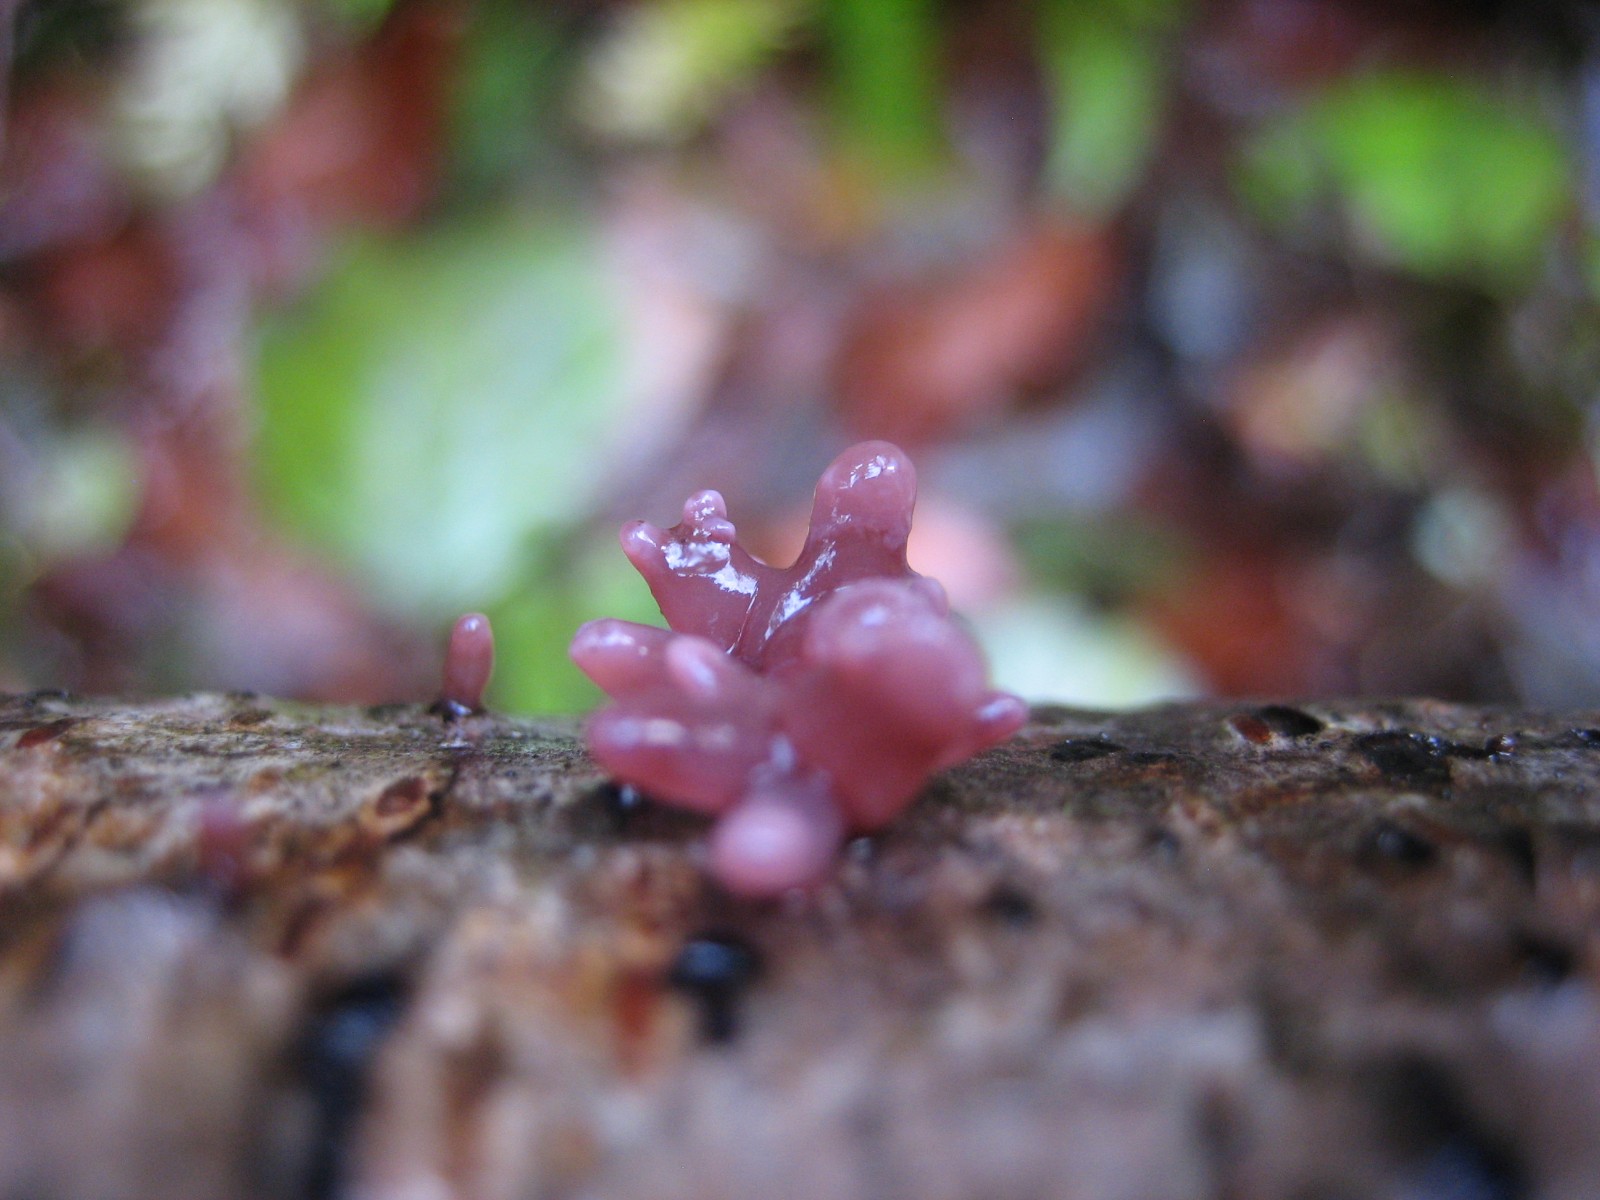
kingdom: Fungi
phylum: Ascomycota
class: Leotiomycetes
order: Helotiales
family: Gelatinodiscaceae
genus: Ascocoryne
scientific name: Ascocoryne sarcoides
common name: rødlilla sejskive
